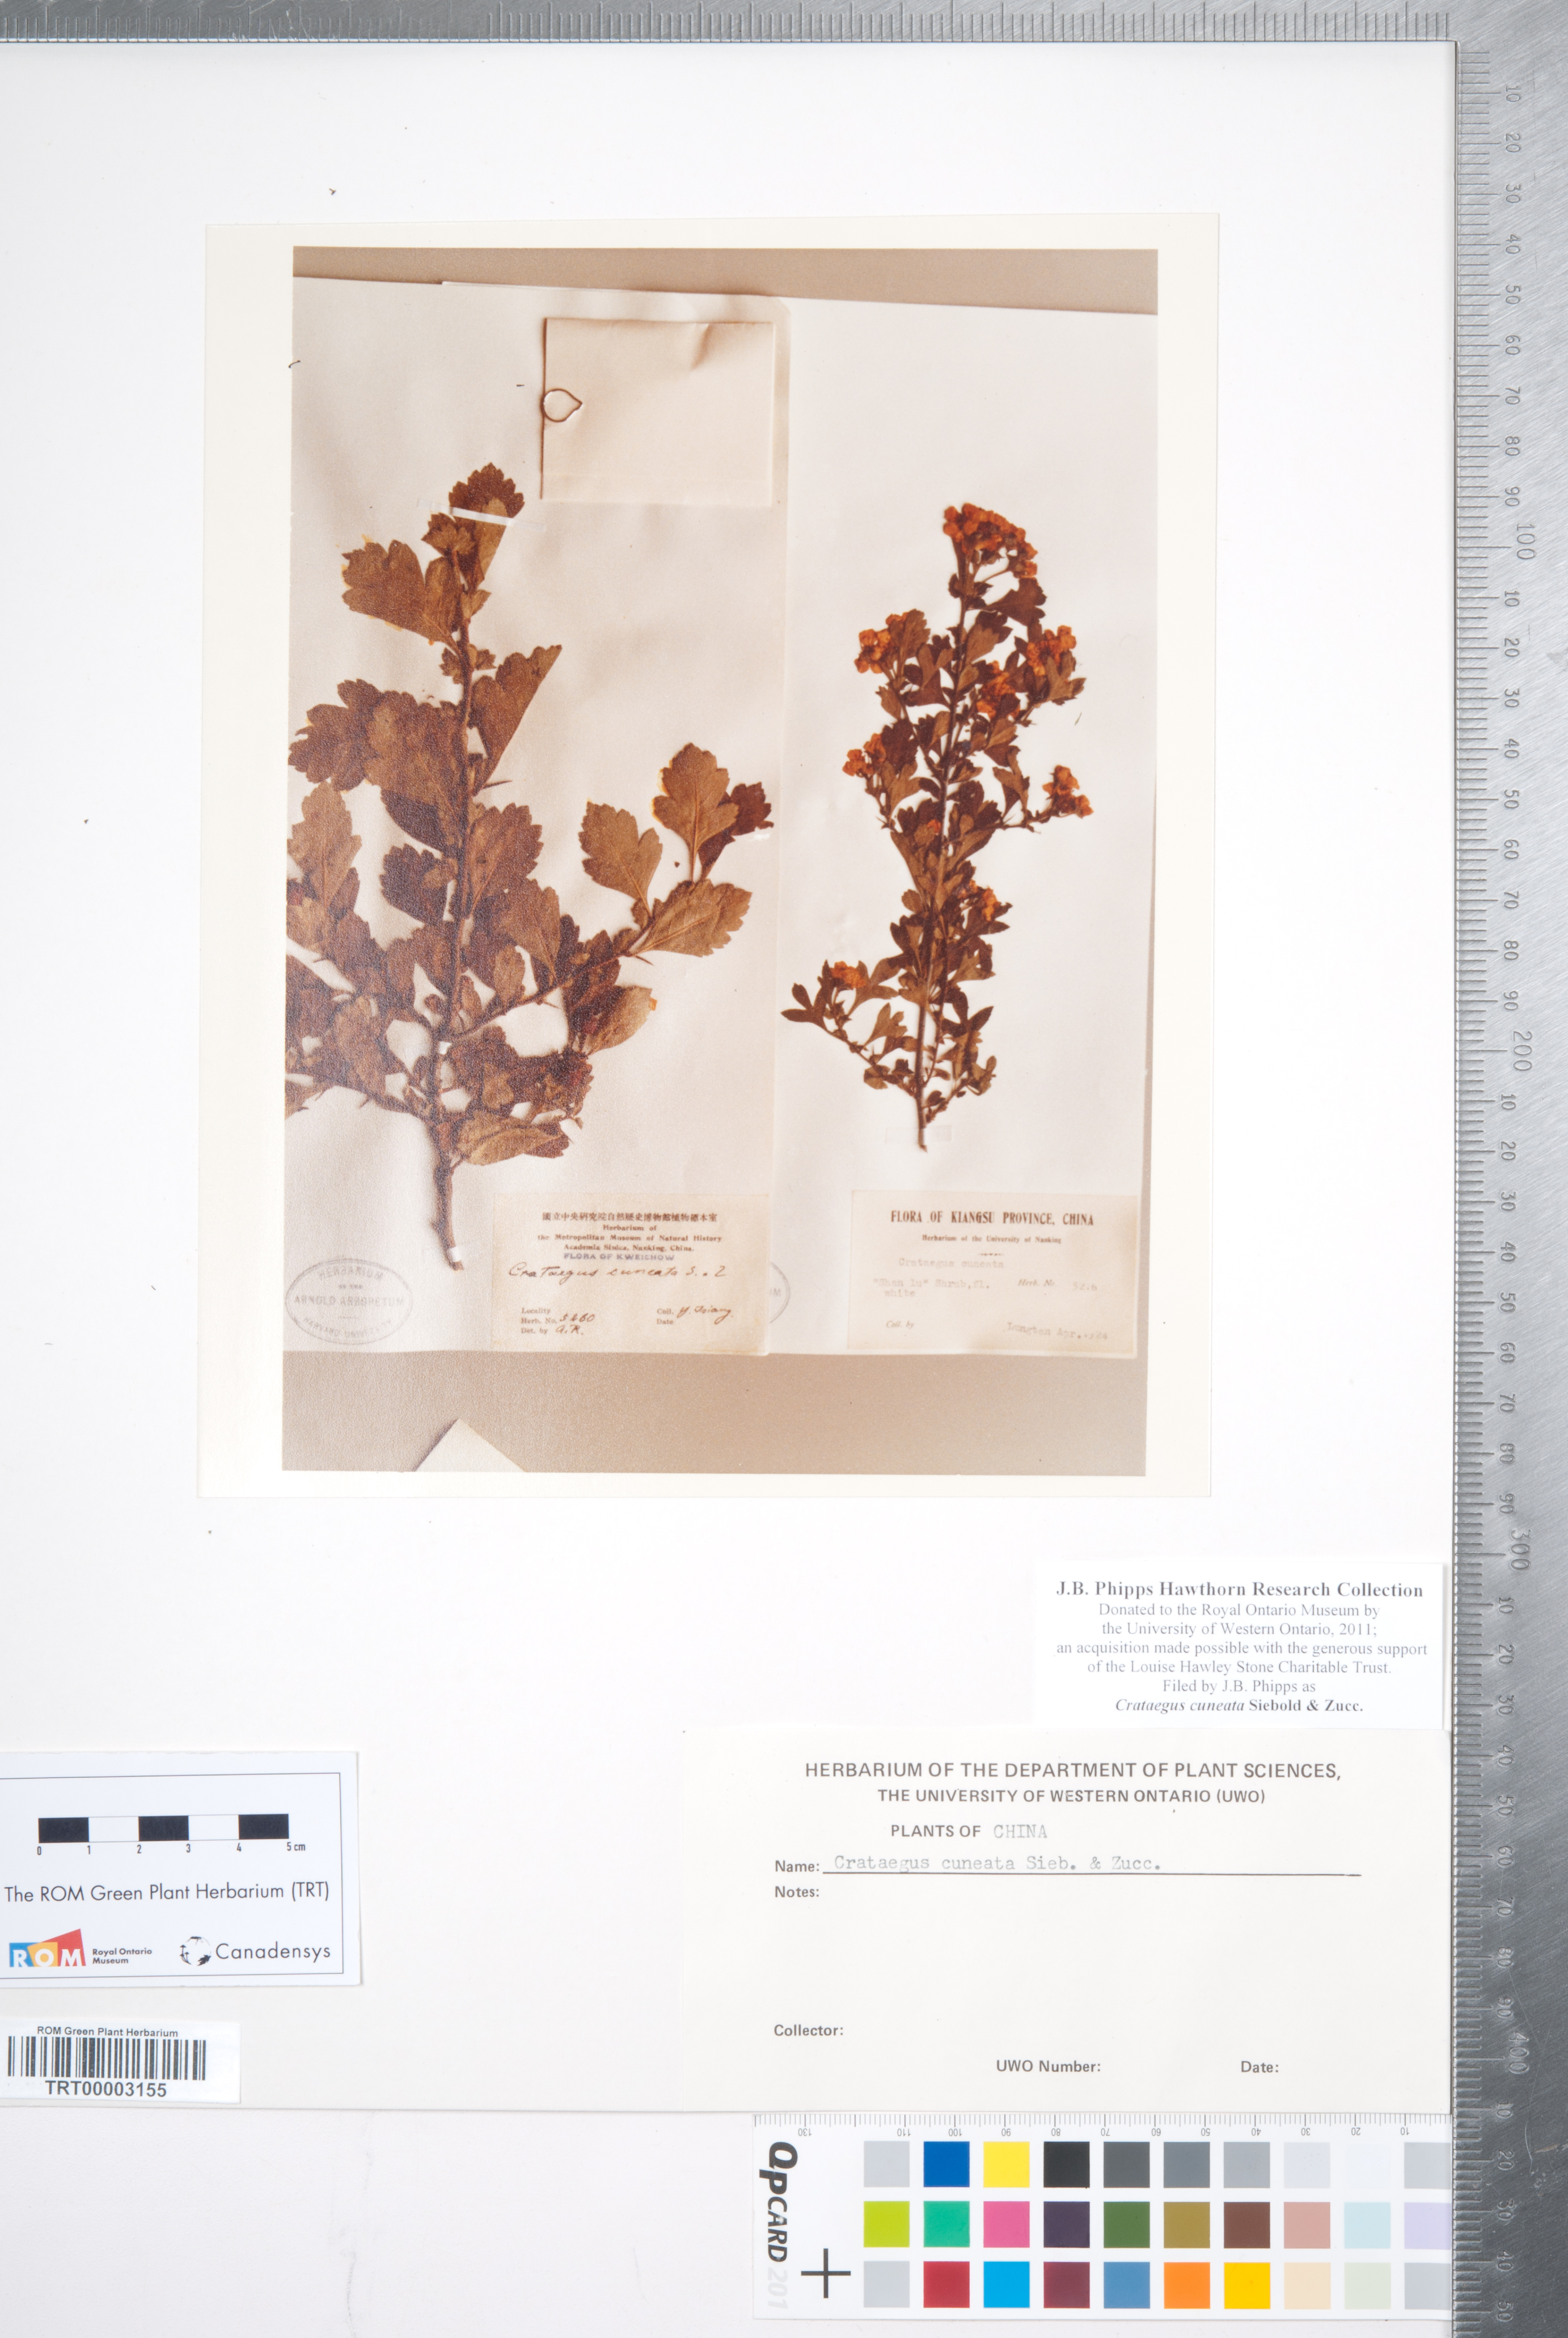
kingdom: Plantae
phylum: Tracheophyta
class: Magnoliopsida
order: Rosales
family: Rosaceae
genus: Crataegus
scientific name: Crataegus cuneata
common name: Chinese hawthorn
